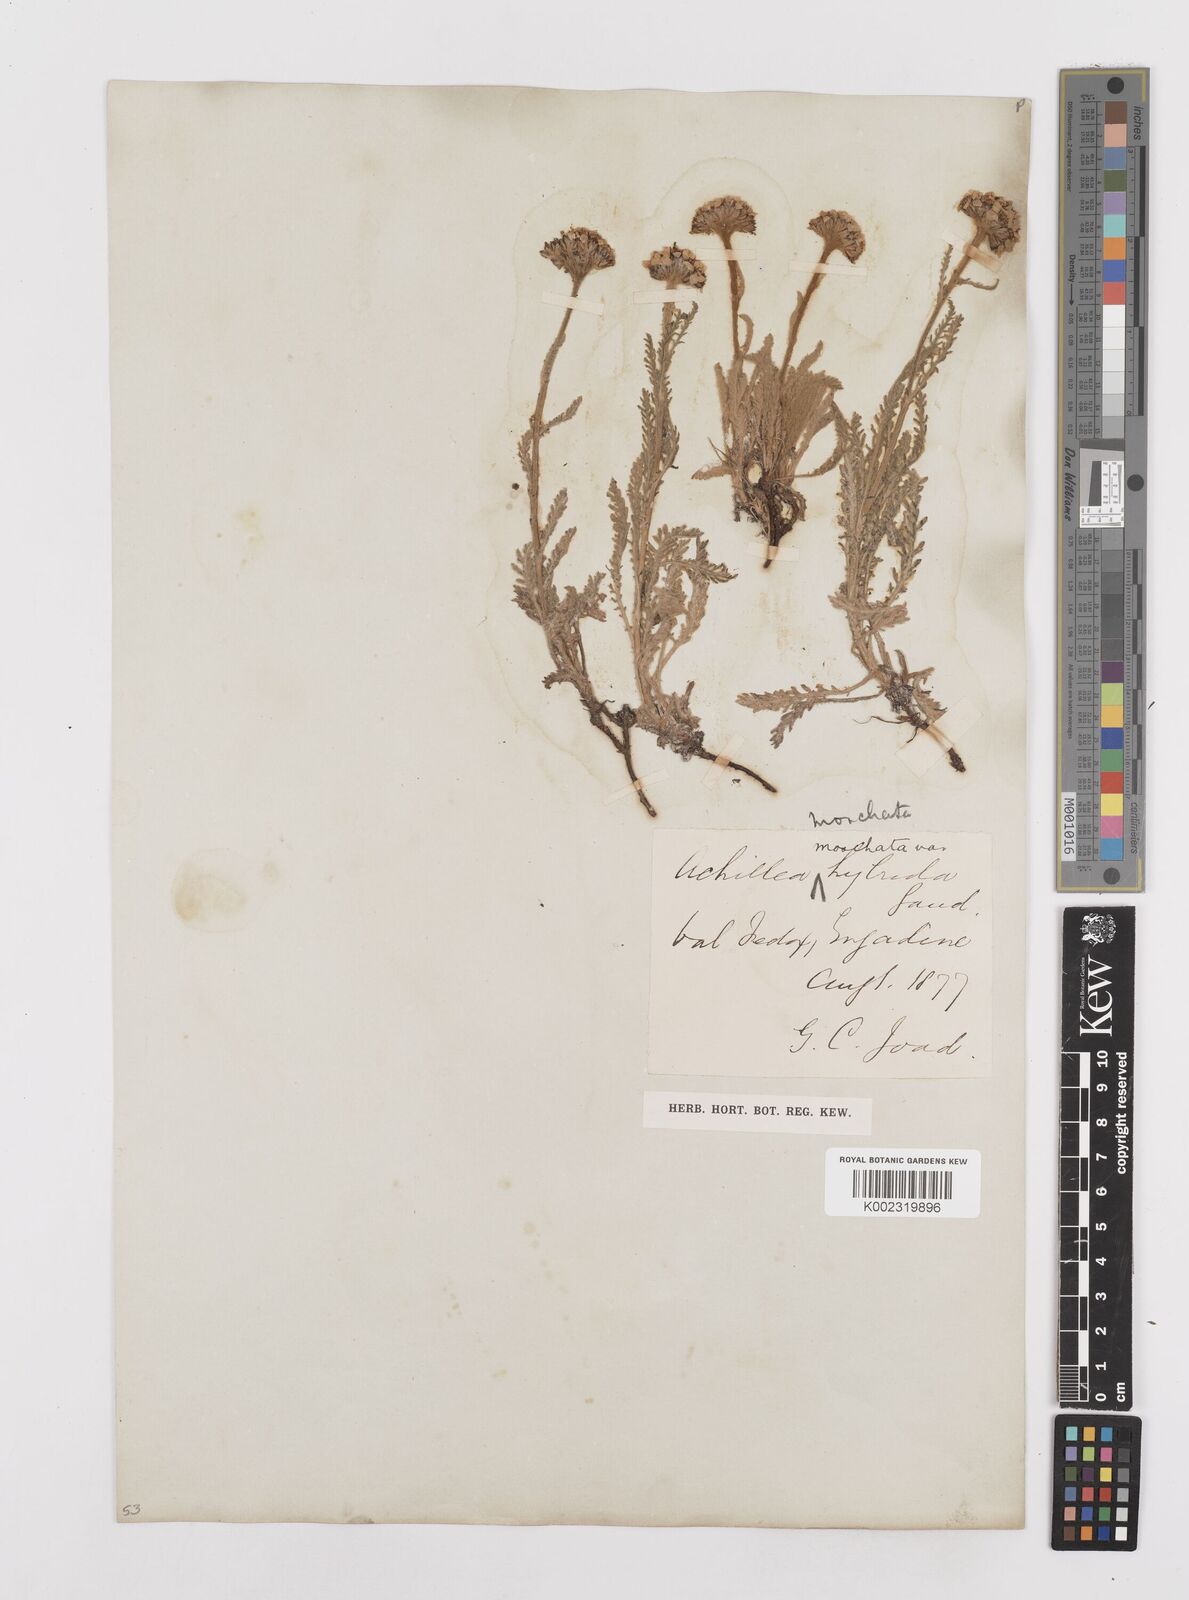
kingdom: Plantae
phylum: Tracheophyta
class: Magnoliopsida
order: Asterales
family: Asteraceae
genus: Achillea
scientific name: Achillea erba-rotta
